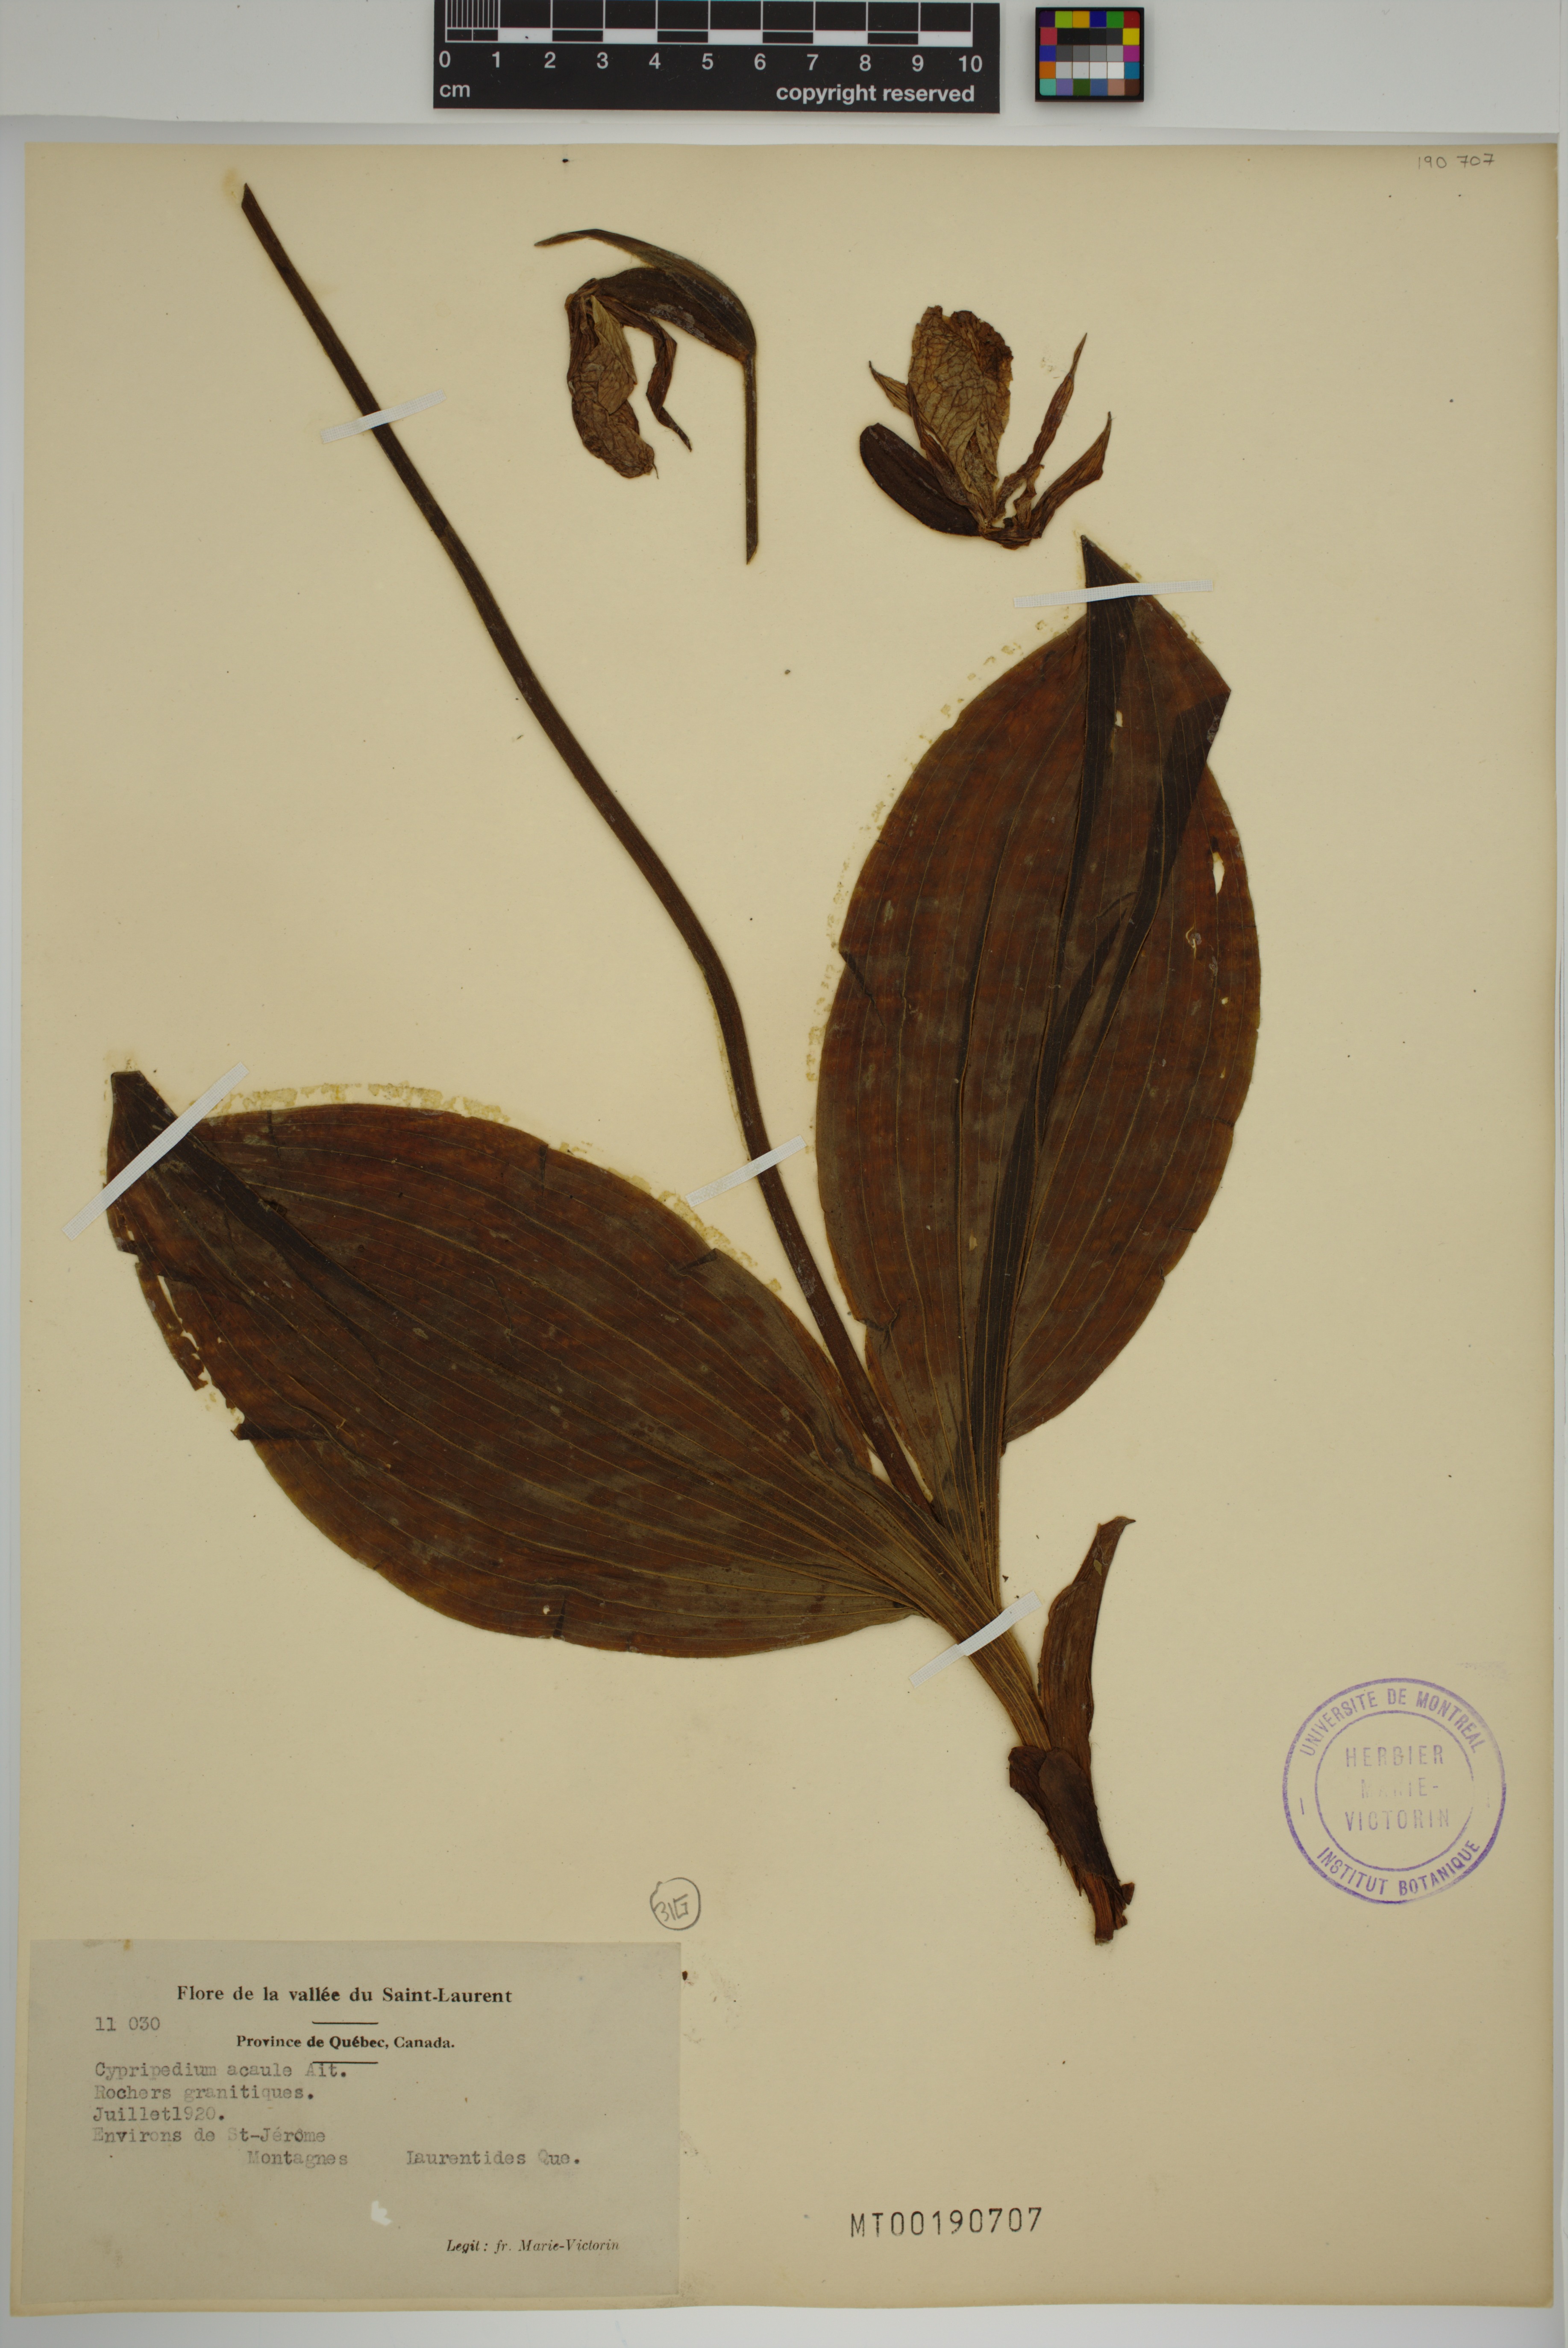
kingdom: Plantae
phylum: Tracheophyta
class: Liliopsida
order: Asparagales
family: Orchidaceae
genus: Cypripedium
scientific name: Cypripedium acaule
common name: Pink lady's-slipper
